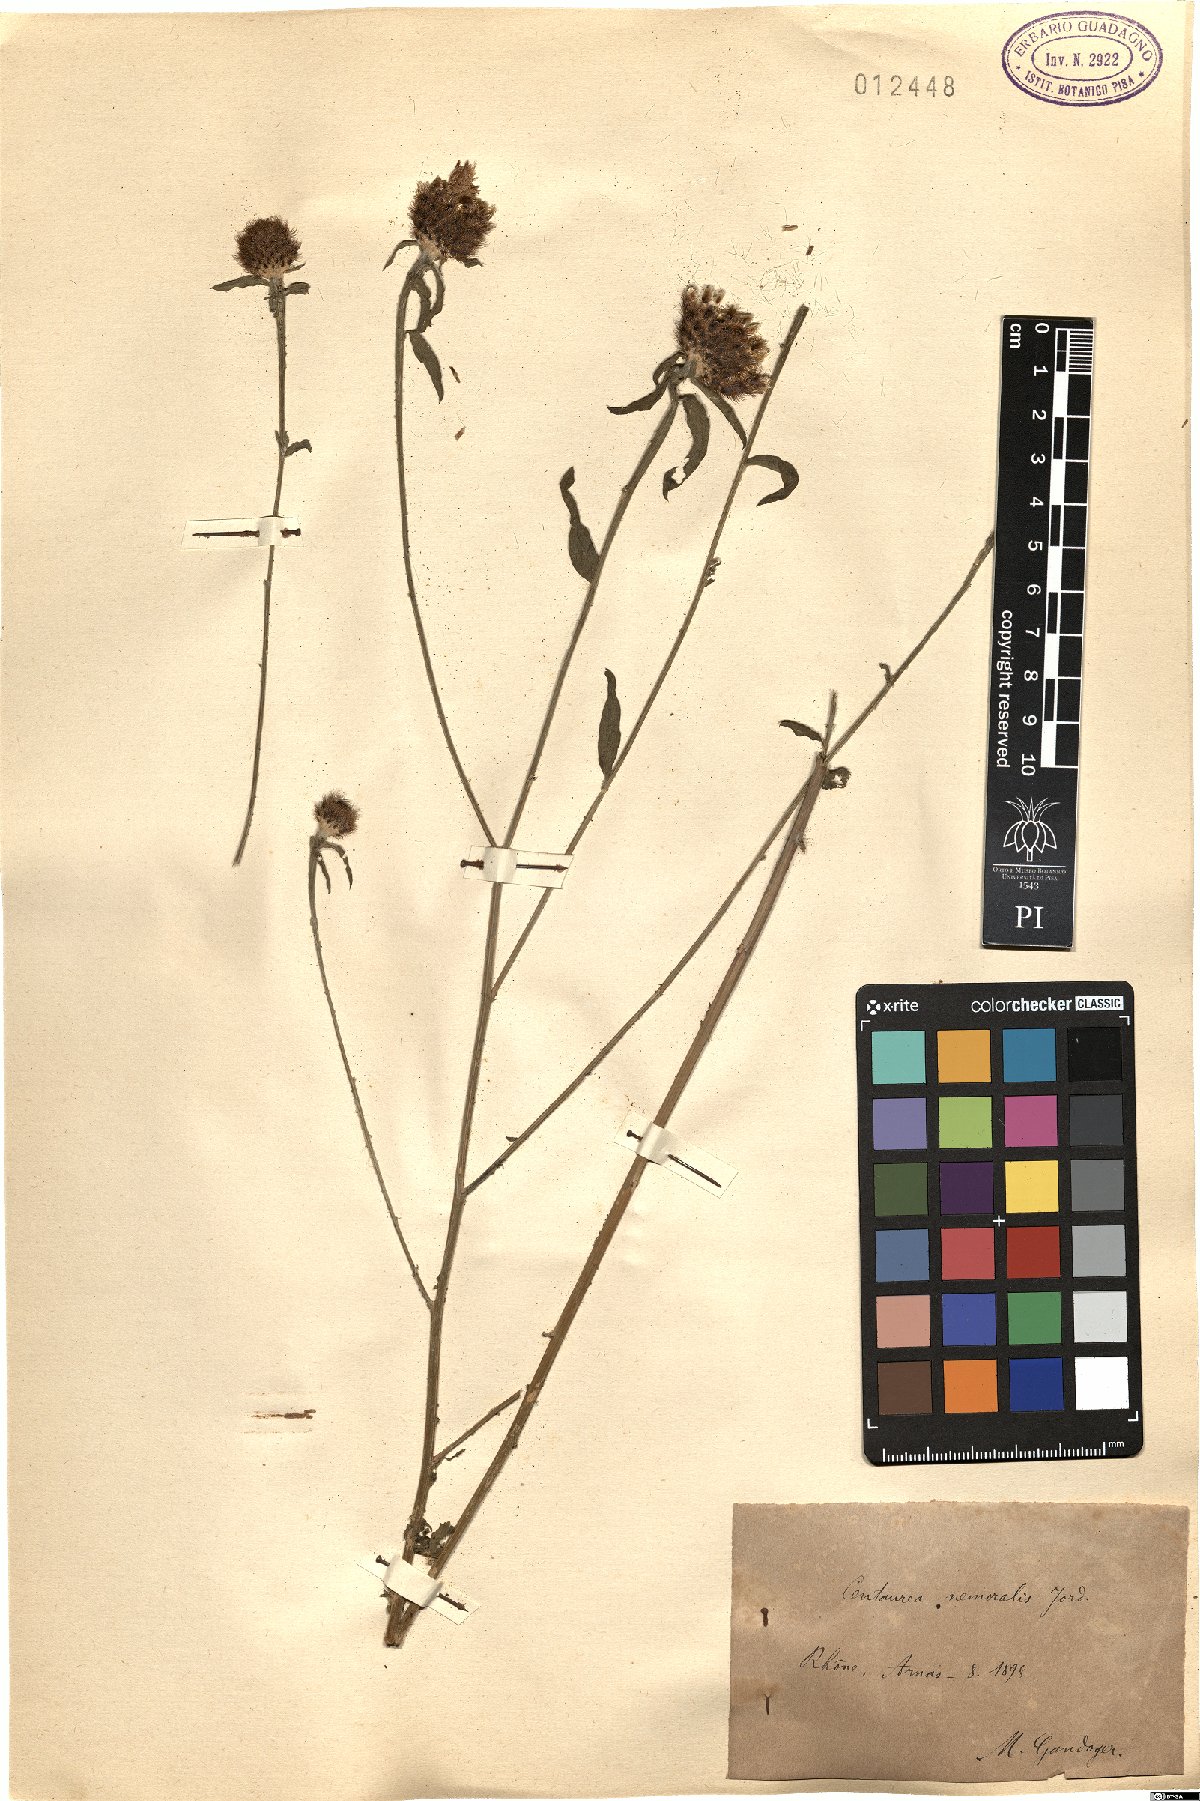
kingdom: Plantae
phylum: Tracheophyta
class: Magnoliopsida
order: Asterales
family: Asteraceae
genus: Centaurea
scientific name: Centaurea nigra
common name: Lesser knapweed
